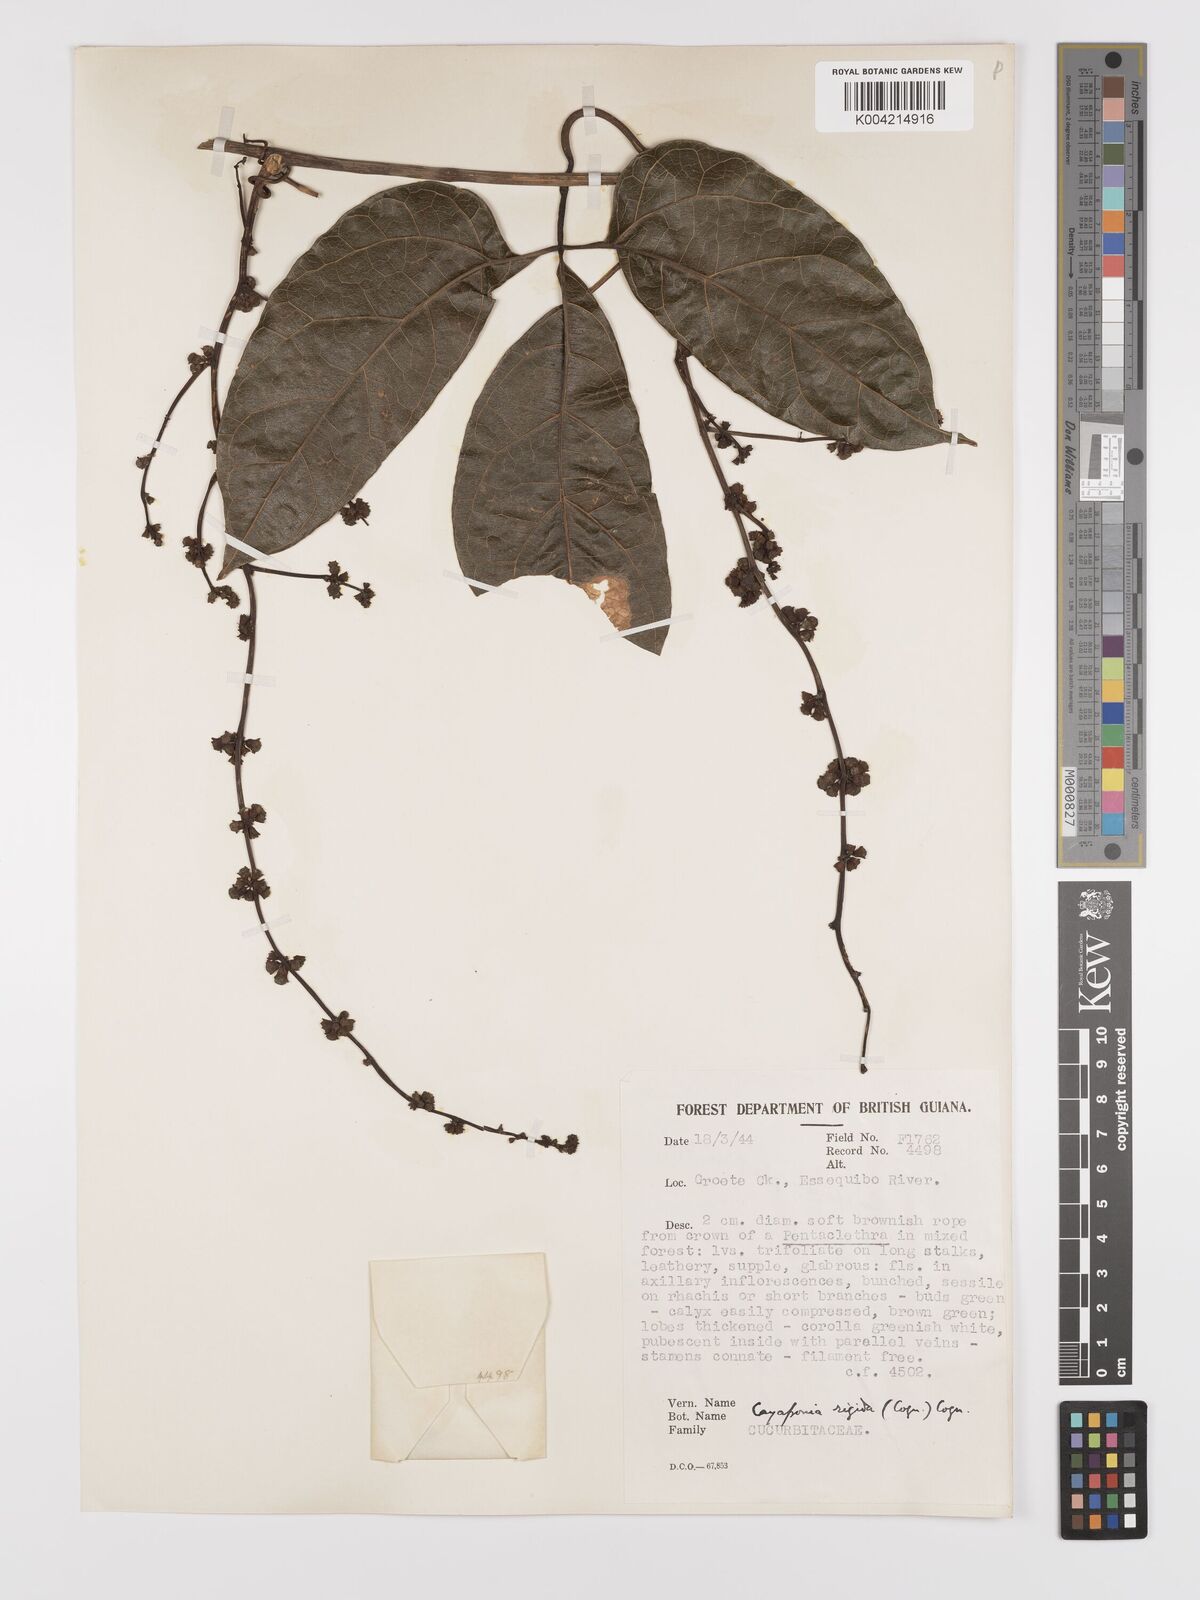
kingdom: Plantae
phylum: Tracheophyta
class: Magnoliopsida
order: Cucurbitales
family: Cucurbitaceae
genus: Cayaponia
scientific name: Cayaponia rigida
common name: Boskomkommer
